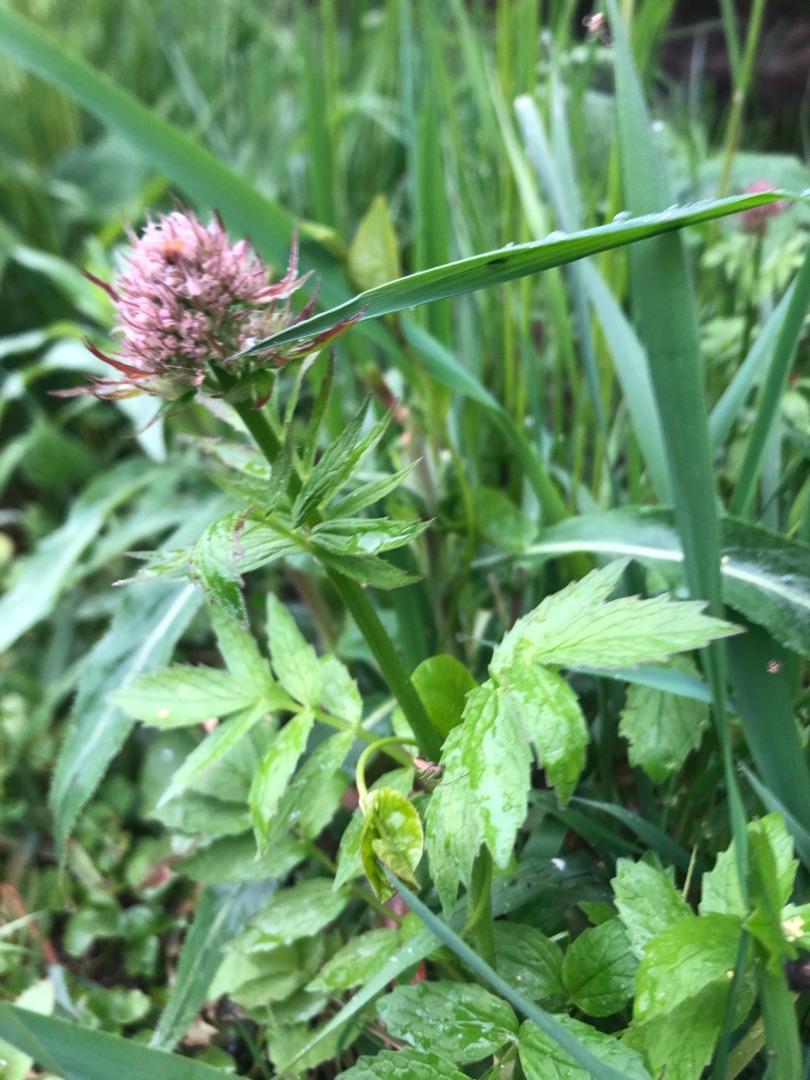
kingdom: Plantae
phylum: Tracheophyta
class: Magnoliopsida
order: Dipsacales
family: Caprifoliaceae
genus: Valeriana
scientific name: Valeriana sambucifolia
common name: Hyldebladet baldrian
